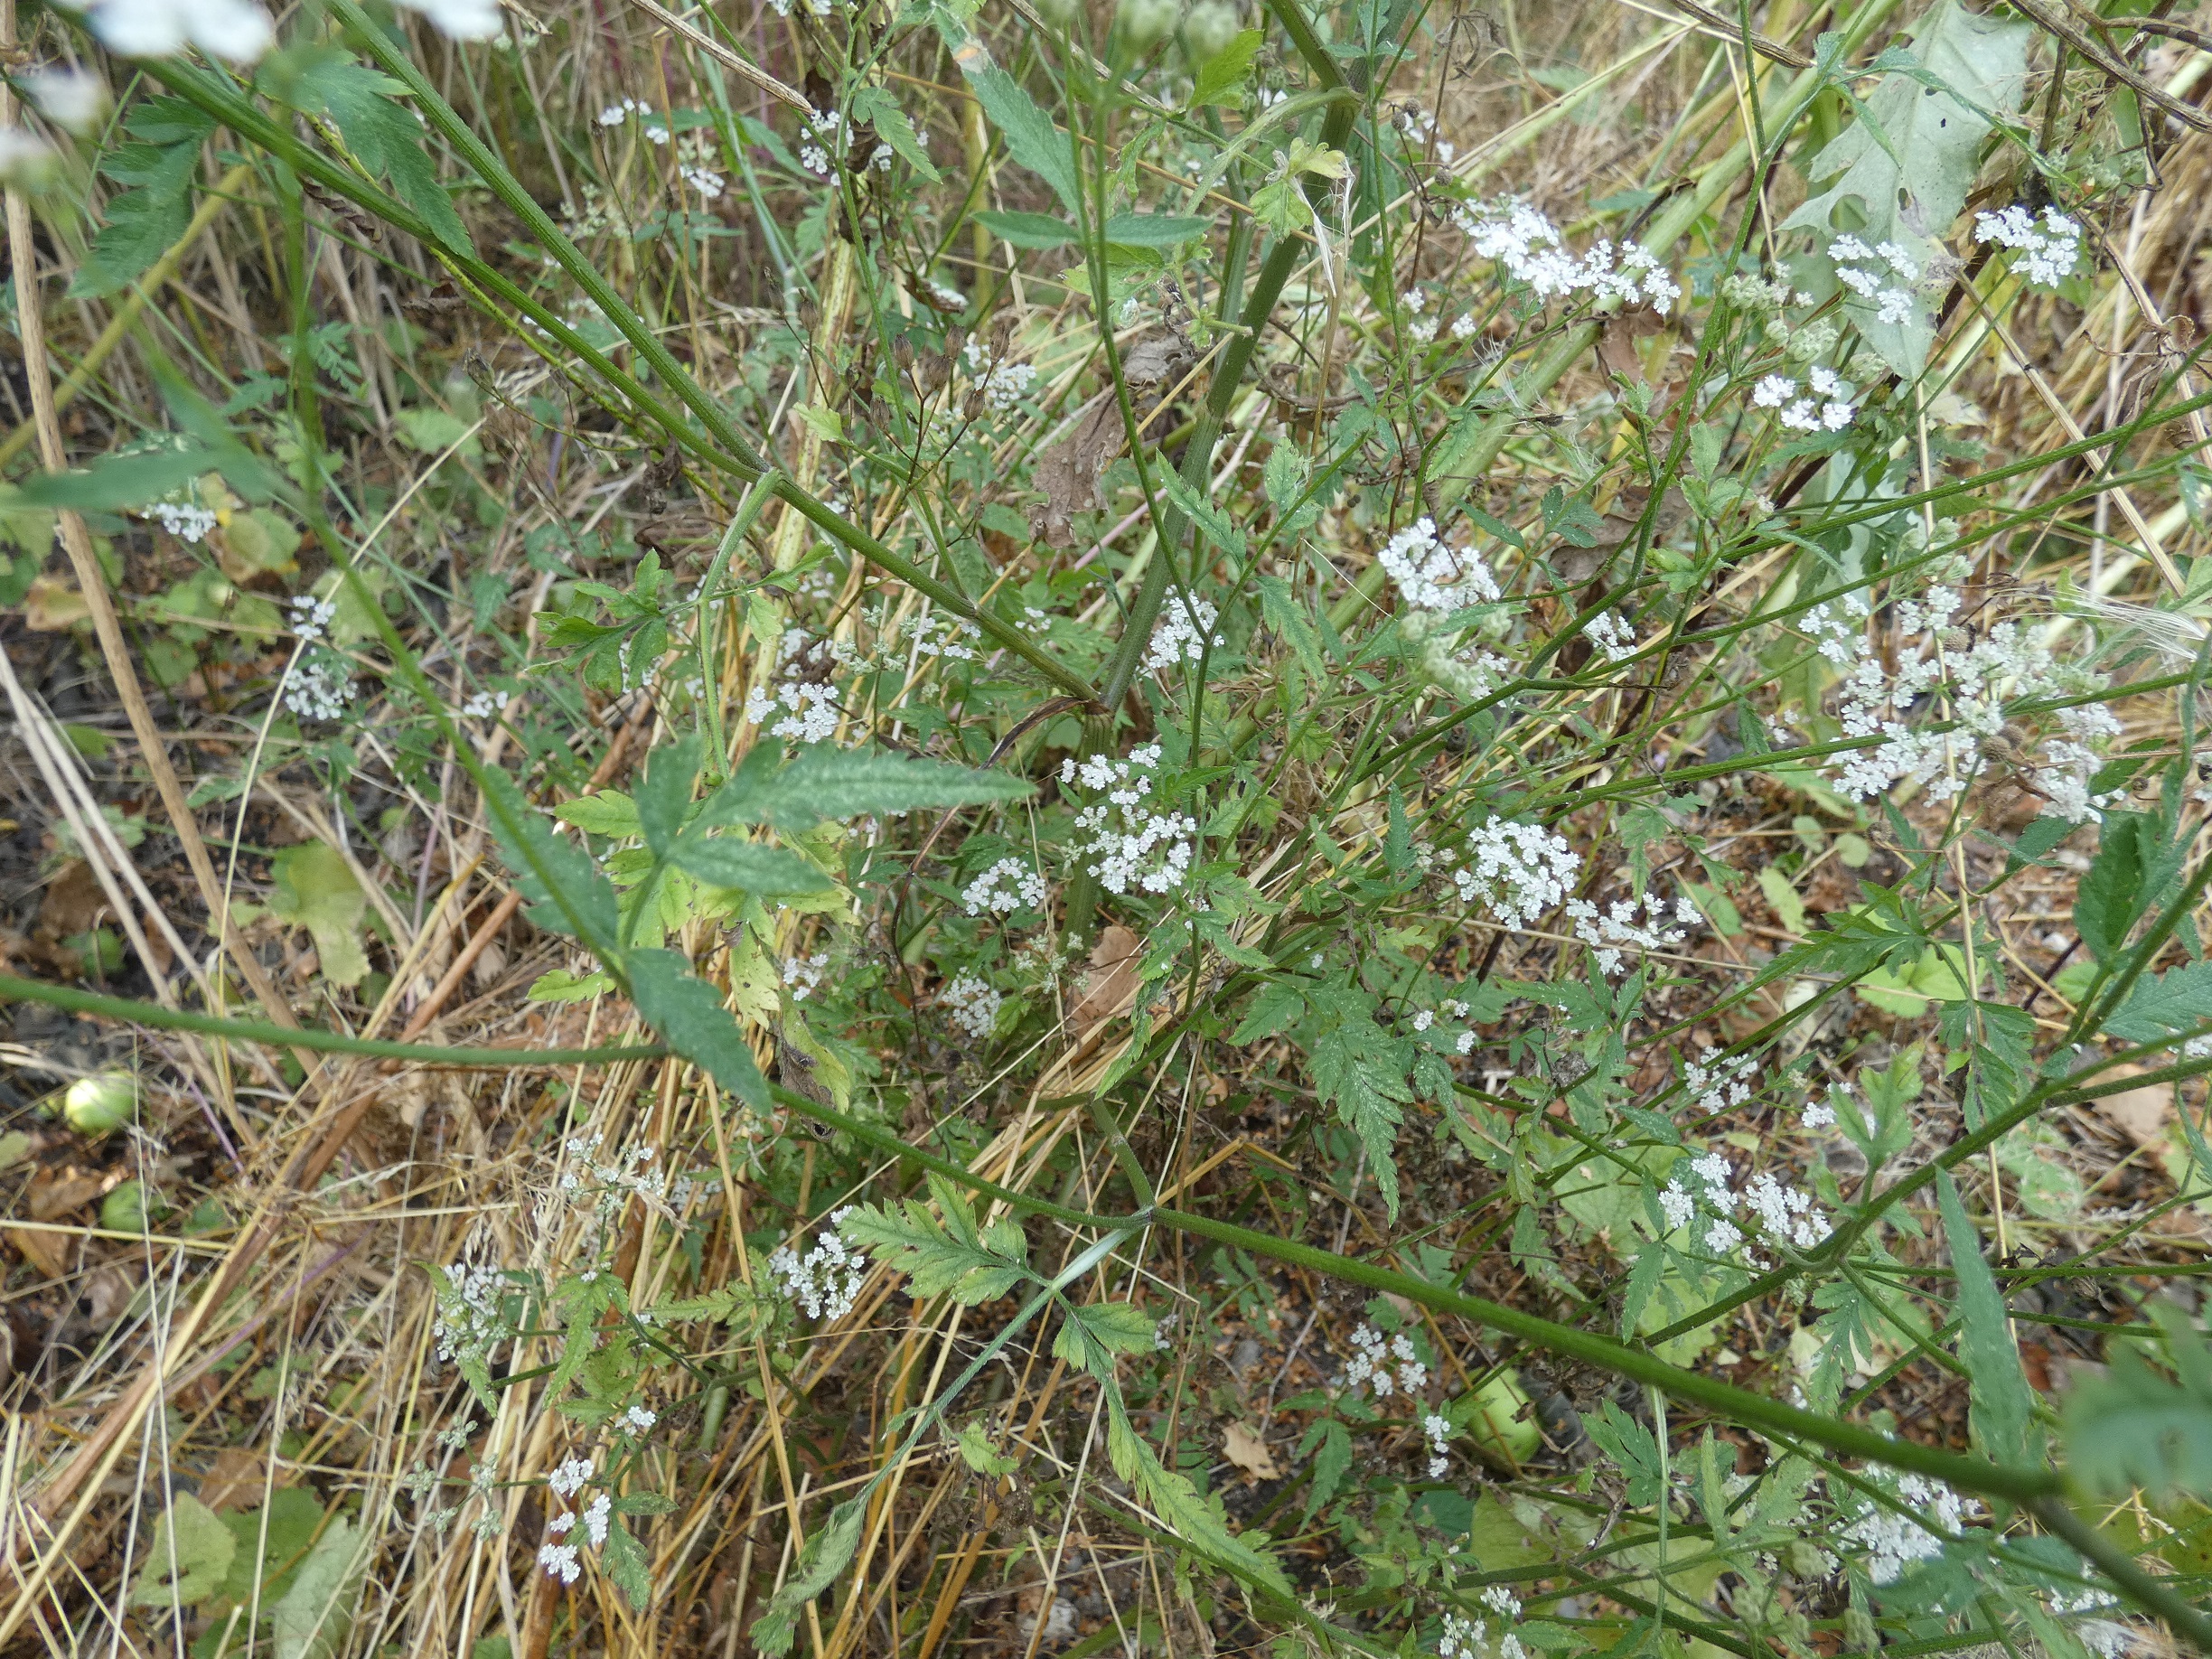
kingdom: Plantae
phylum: Tracheophyta
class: Magnoliopsida
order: Apiales
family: Apiaceae
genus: Torilis
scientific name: Torilis japonica
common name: Hvas randfrø
